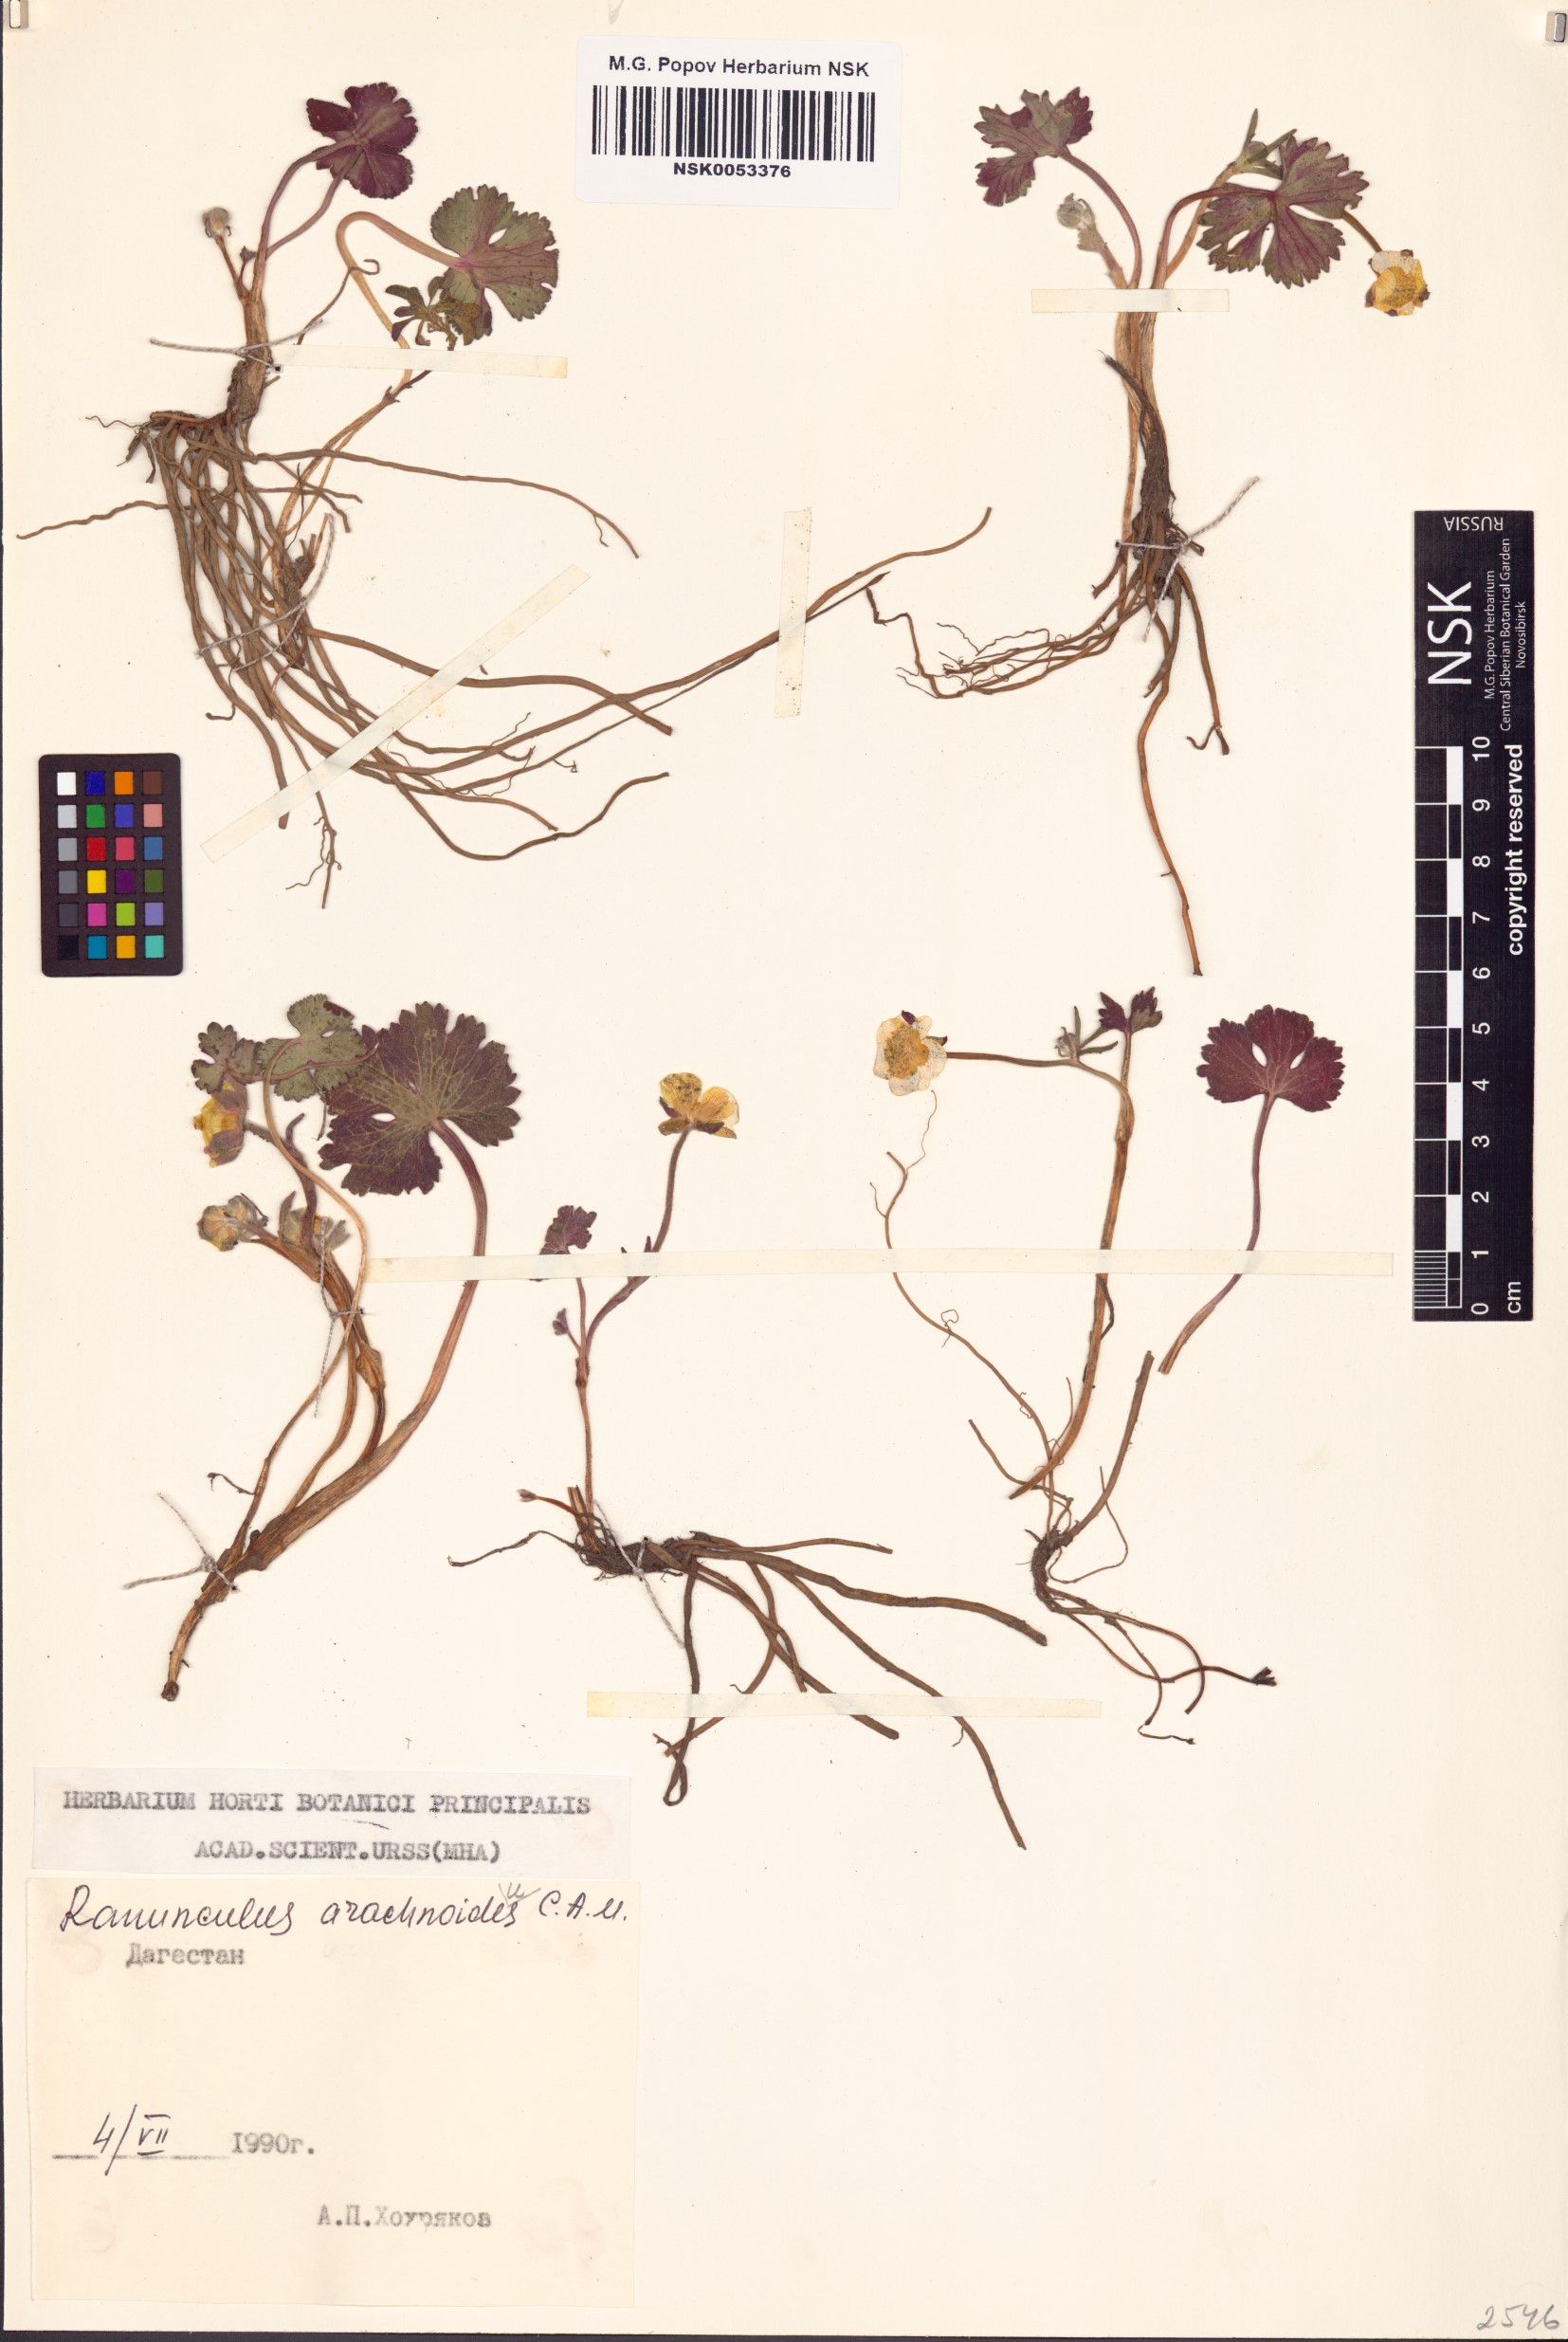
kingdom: Plantae
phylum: Tracheophyta
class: Magnoliopsida
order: Ranunculales
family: Ranunculaceae
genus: Ranunculus
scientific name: Ranunculus arachnoideus
